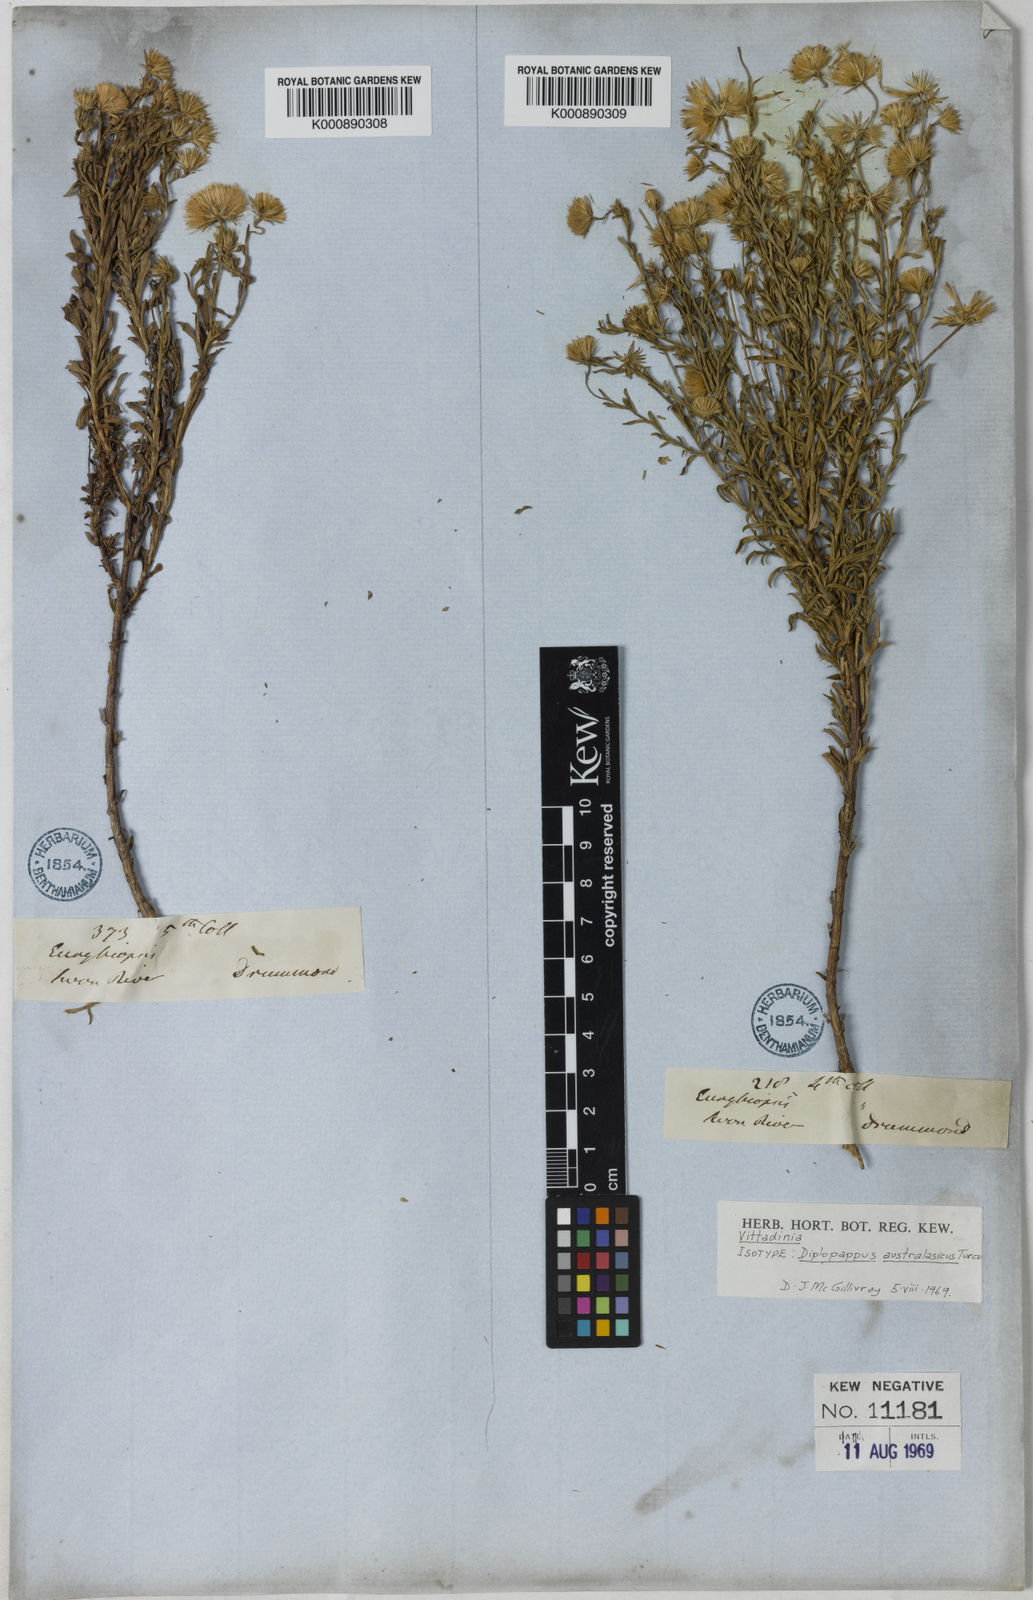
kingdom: Plantae
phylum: Tracheophyta
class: Magnoliopsida
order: Asterales
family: Asteraceae
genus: Vittadinia
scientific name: Vittadinia
